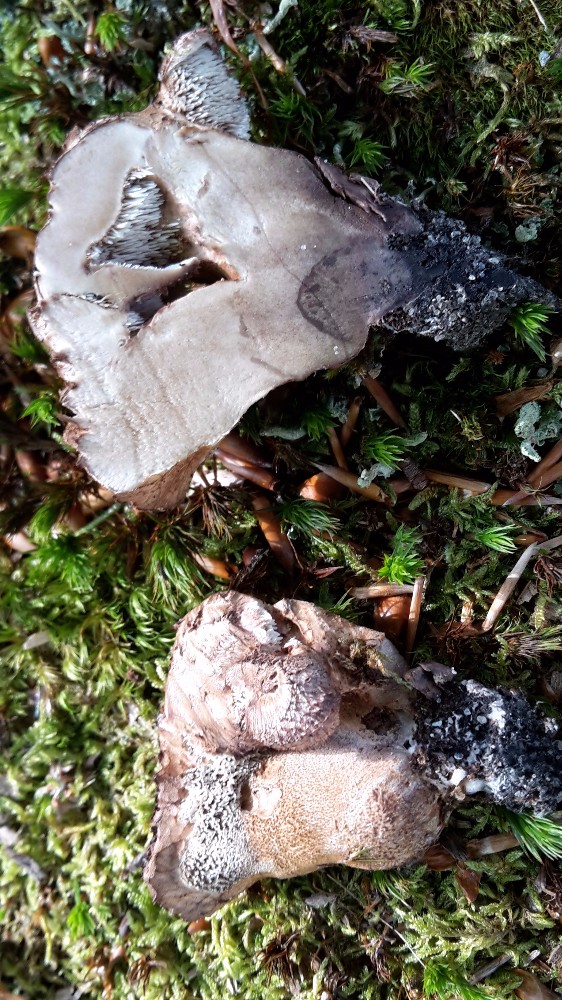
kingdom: Fungi
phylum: Basidiomycota
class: Agaricomycetes
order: Thelephorales
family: Bankeraceae
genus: Hydnellum
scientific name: Hydnellum lepidum
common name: skrænt-korkpigsvamp
